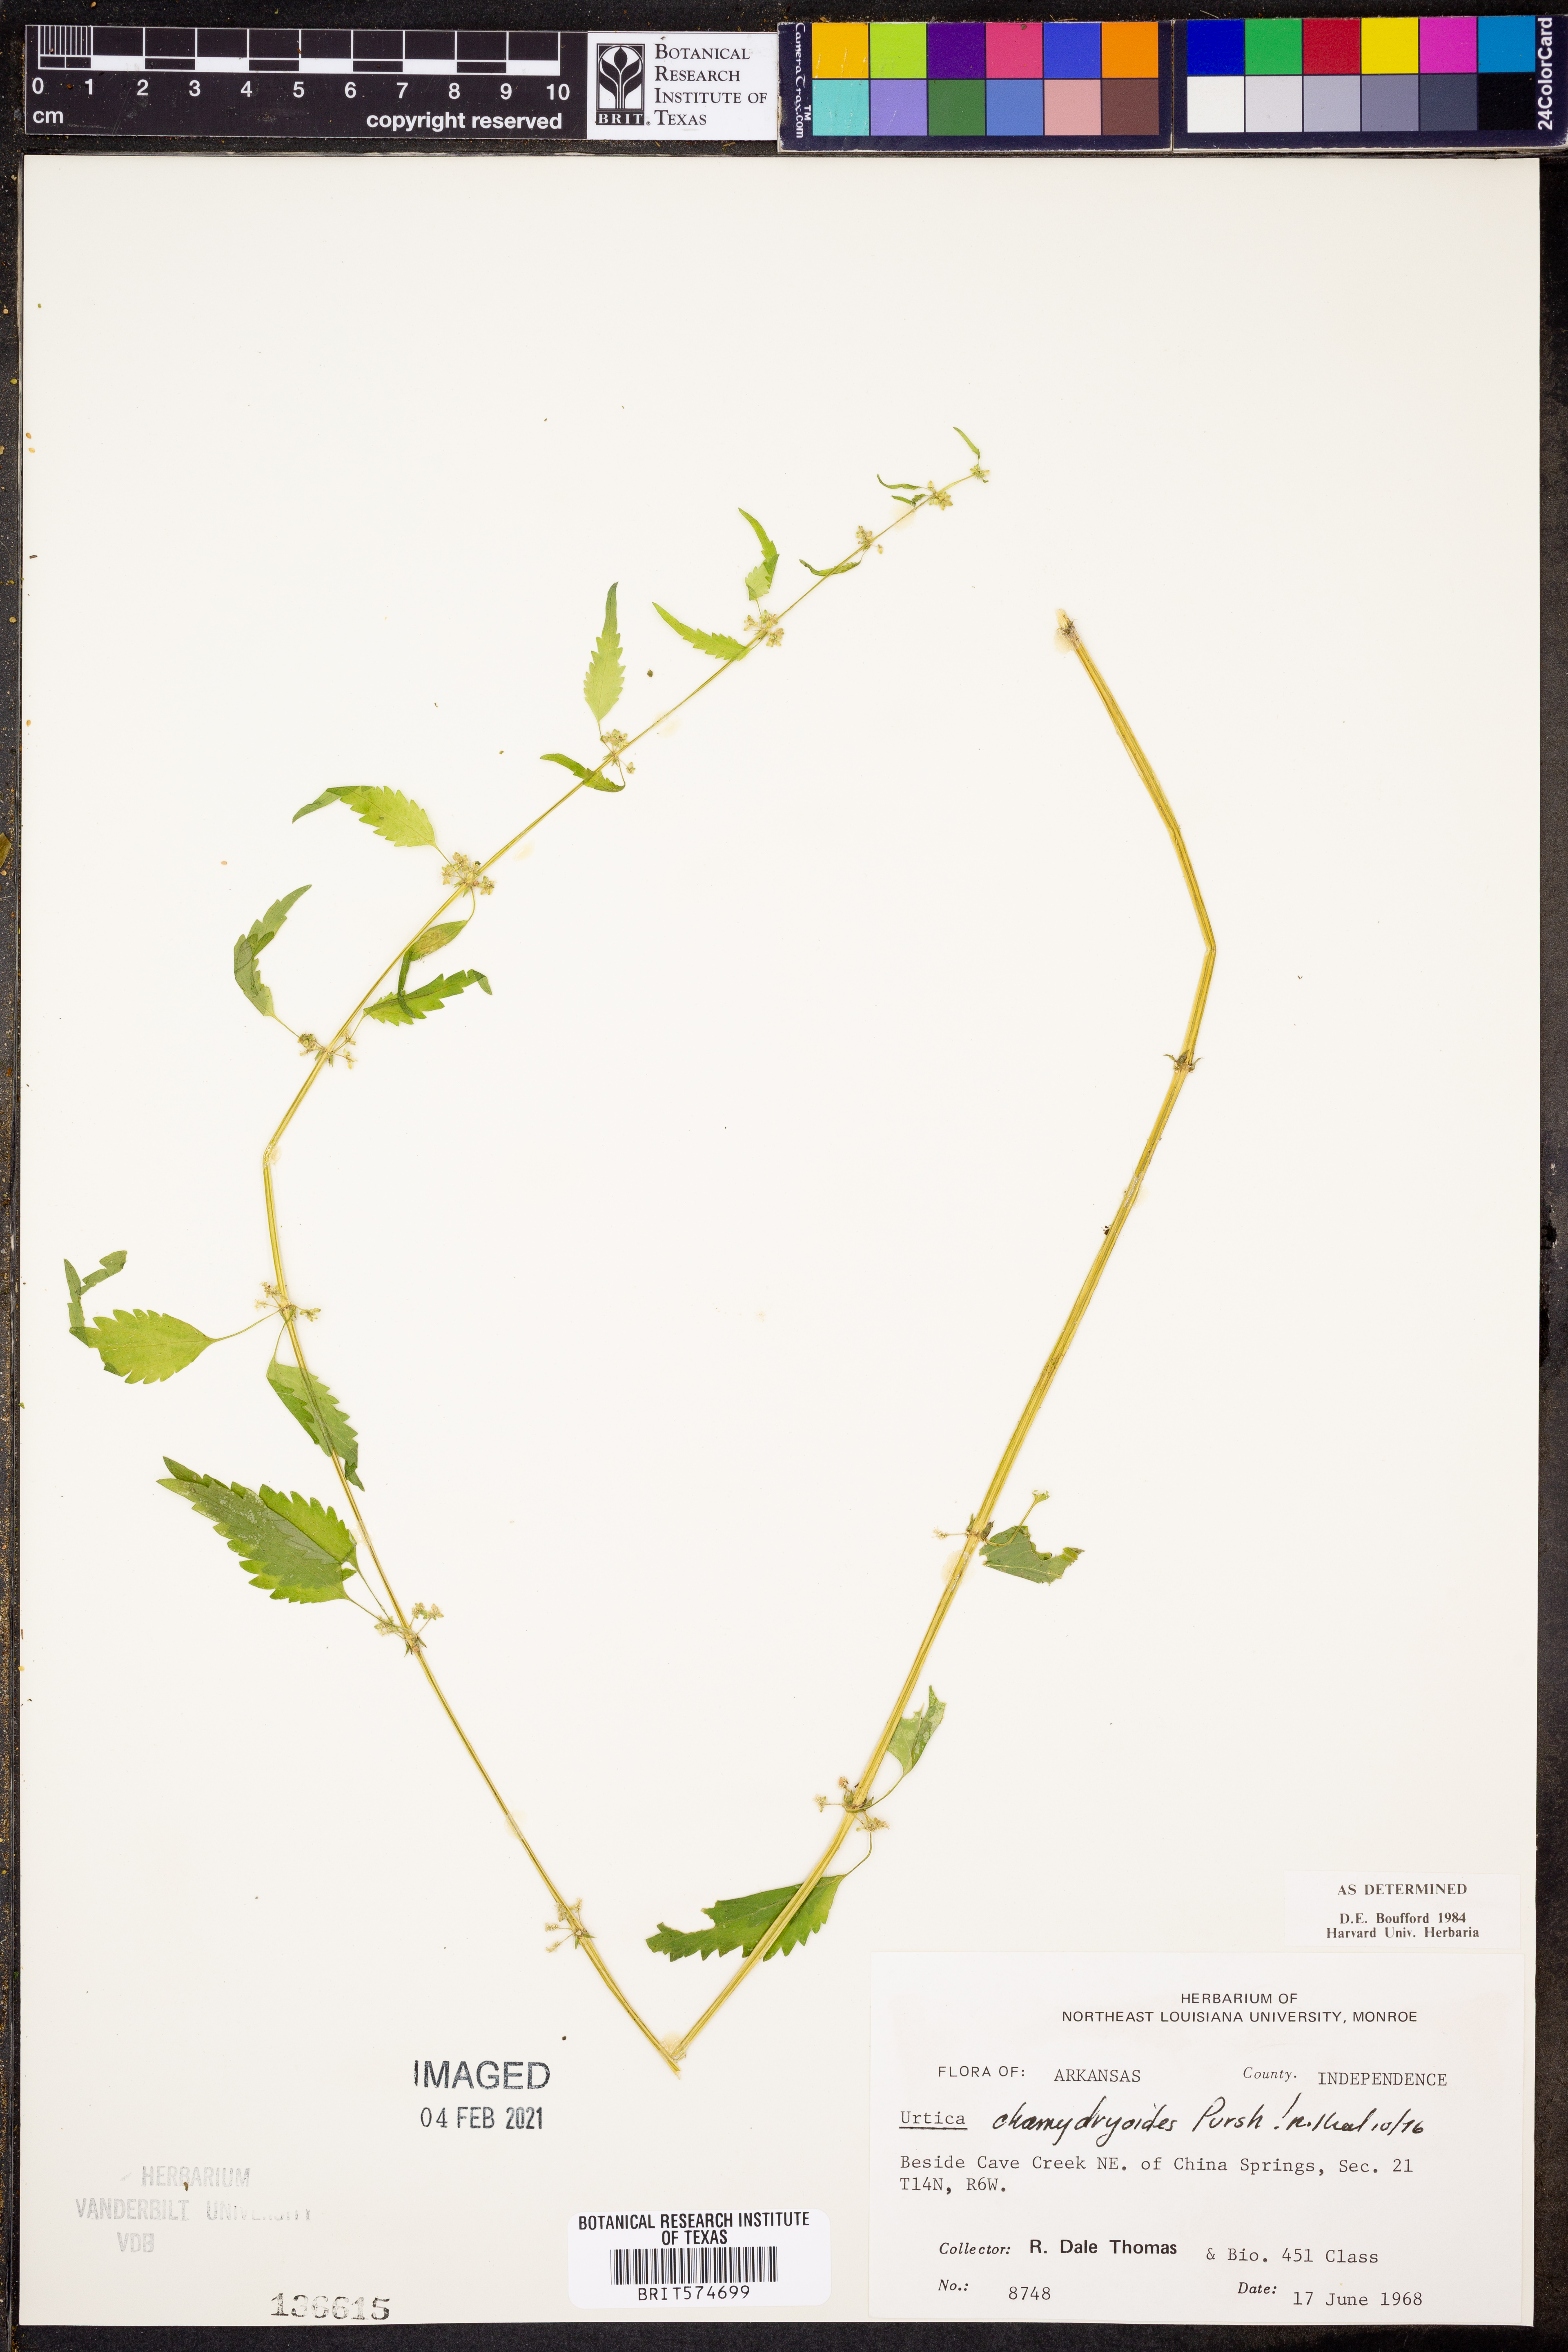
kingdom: Plantae
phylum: Tracheophyta
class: Magnoliopsida
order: Rosales
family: Urticaceae
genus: Urtica
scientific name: Urtica chamaedryoides
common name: Heart-leaf nettle
